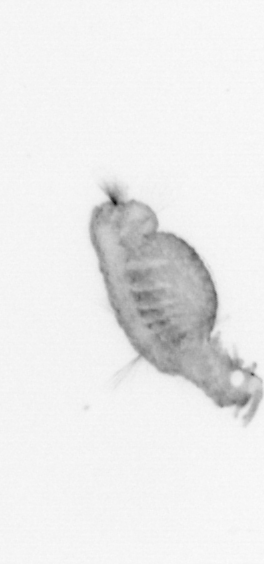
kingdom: Animalia
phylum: Annelida
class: Polychaeta
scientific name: Polychaeta
